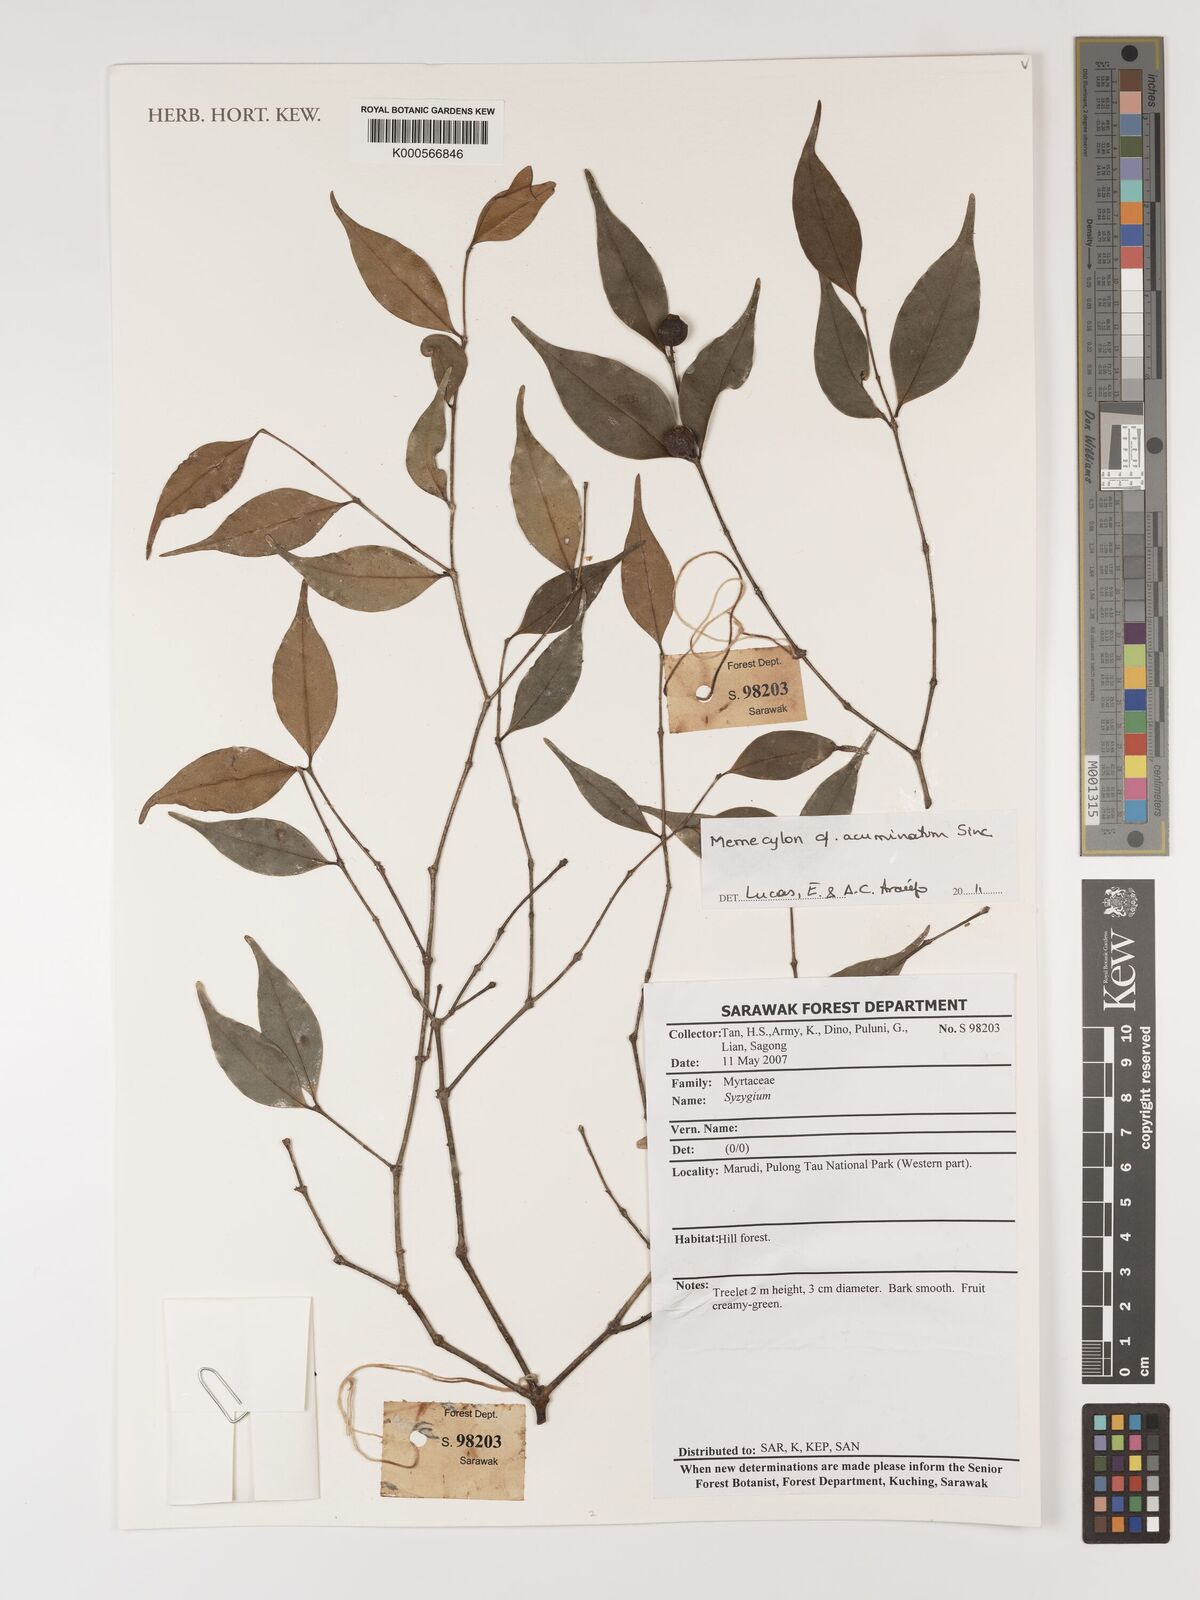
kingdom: Plantae
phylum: Tracheophyta
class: Magnoliopsida
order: Myrtales
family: Melastomataceae
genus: Memecylon
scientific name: Memecylon
